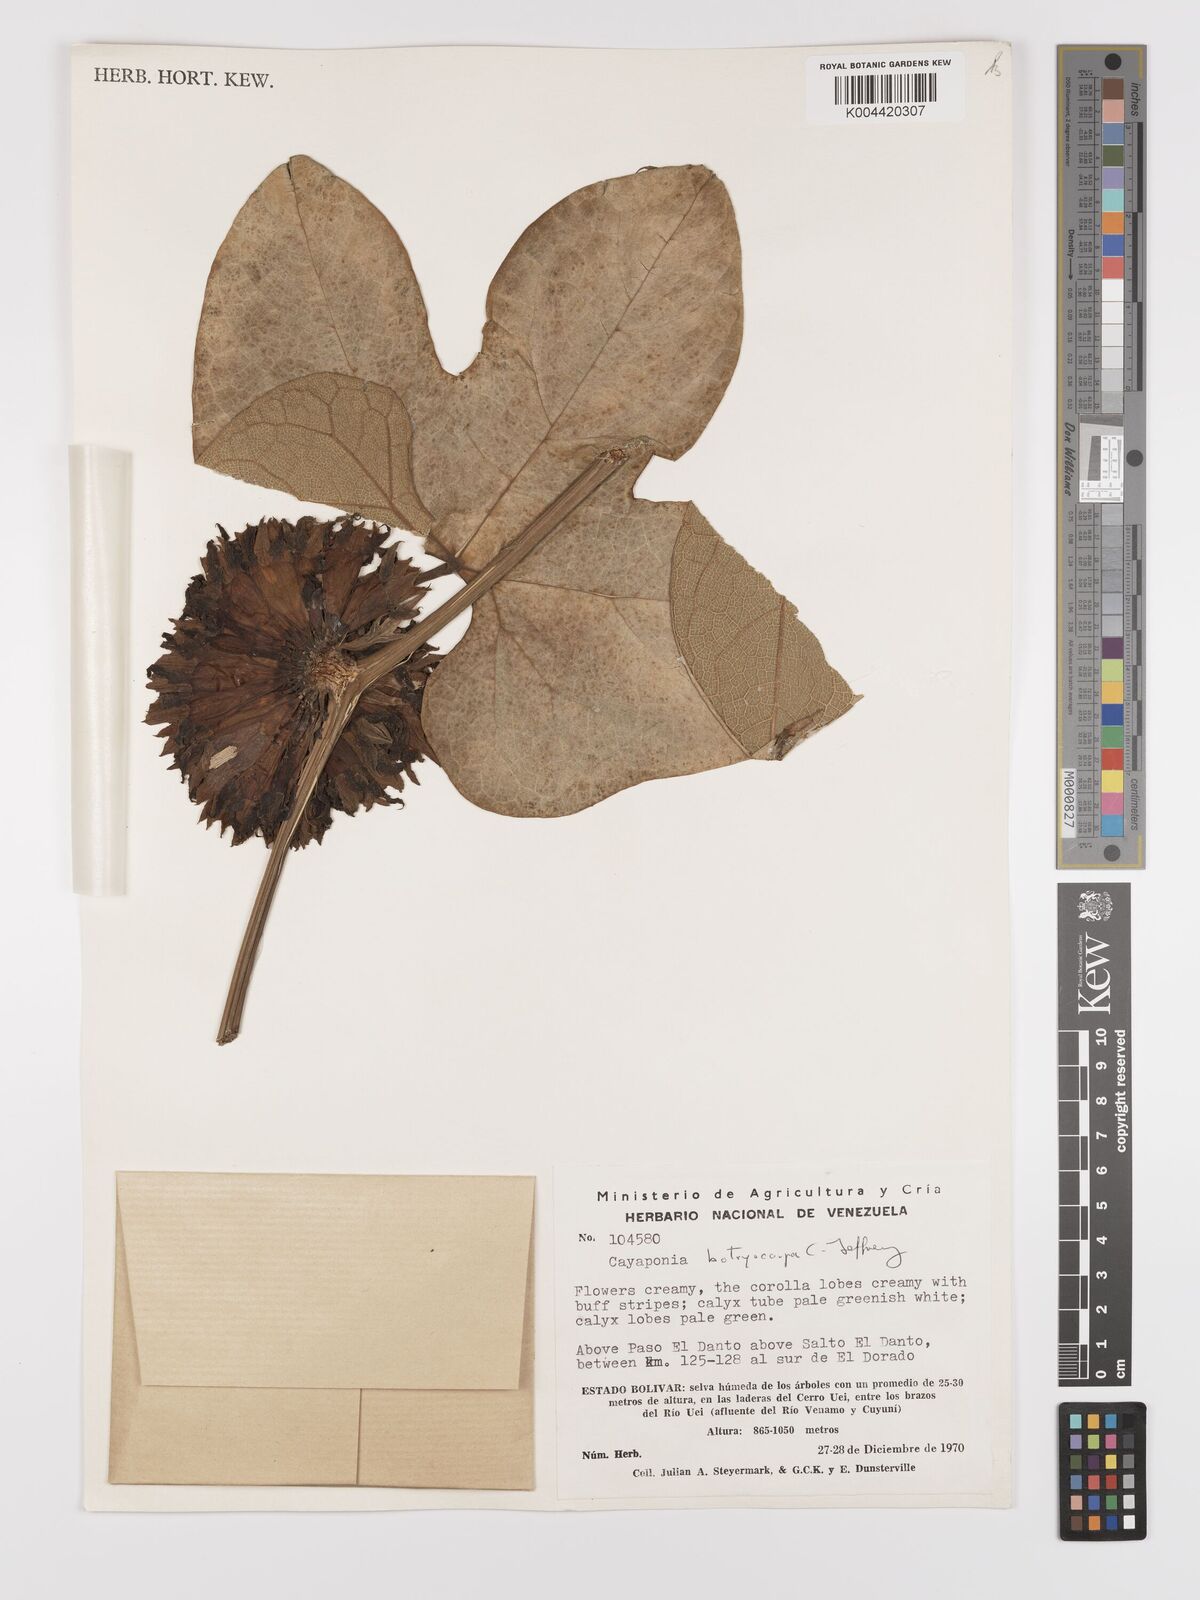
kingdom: Plantae
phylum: Tracheophyta
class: Magnoliopsida
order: Cucurbitales
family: Cucurbitaceae
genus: Cayaponia
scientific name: Cayaponia botryocarpa
